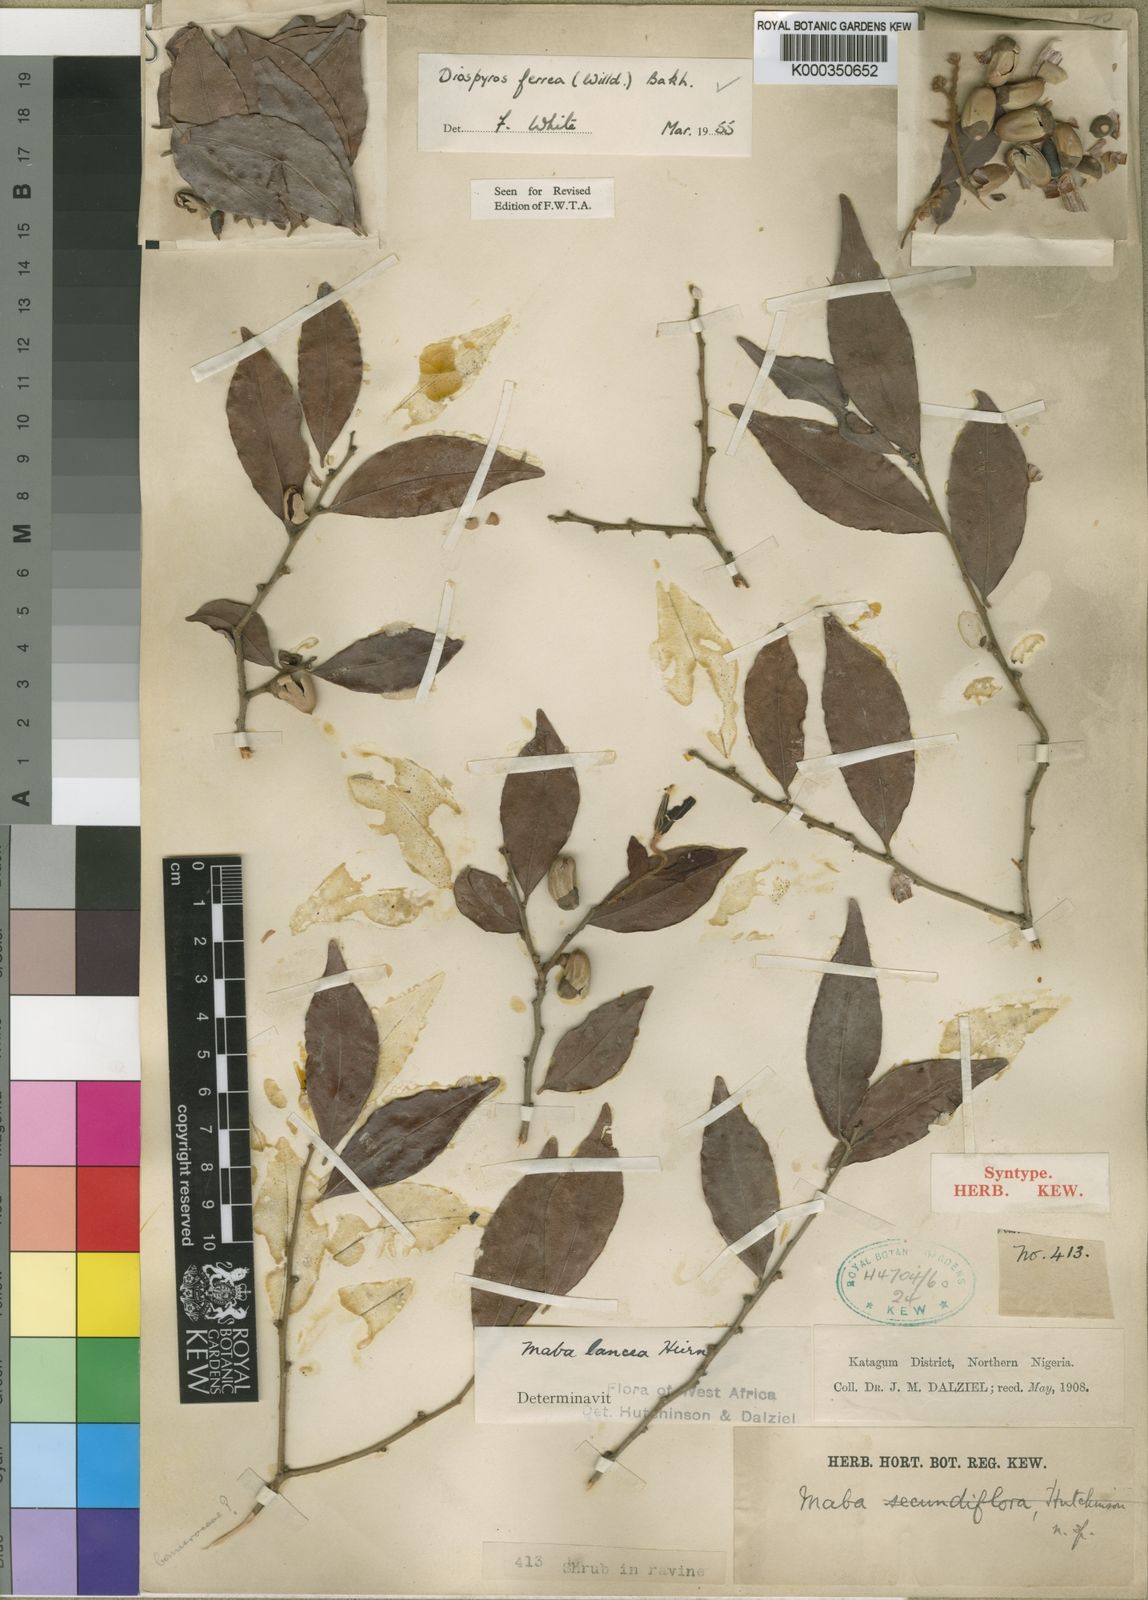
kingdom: Plantae
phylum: Tracheophyta
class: Magnoliopsida
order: Ericales
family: Ebenaceae
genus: Diospyros
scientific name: Diospyros ferrea
